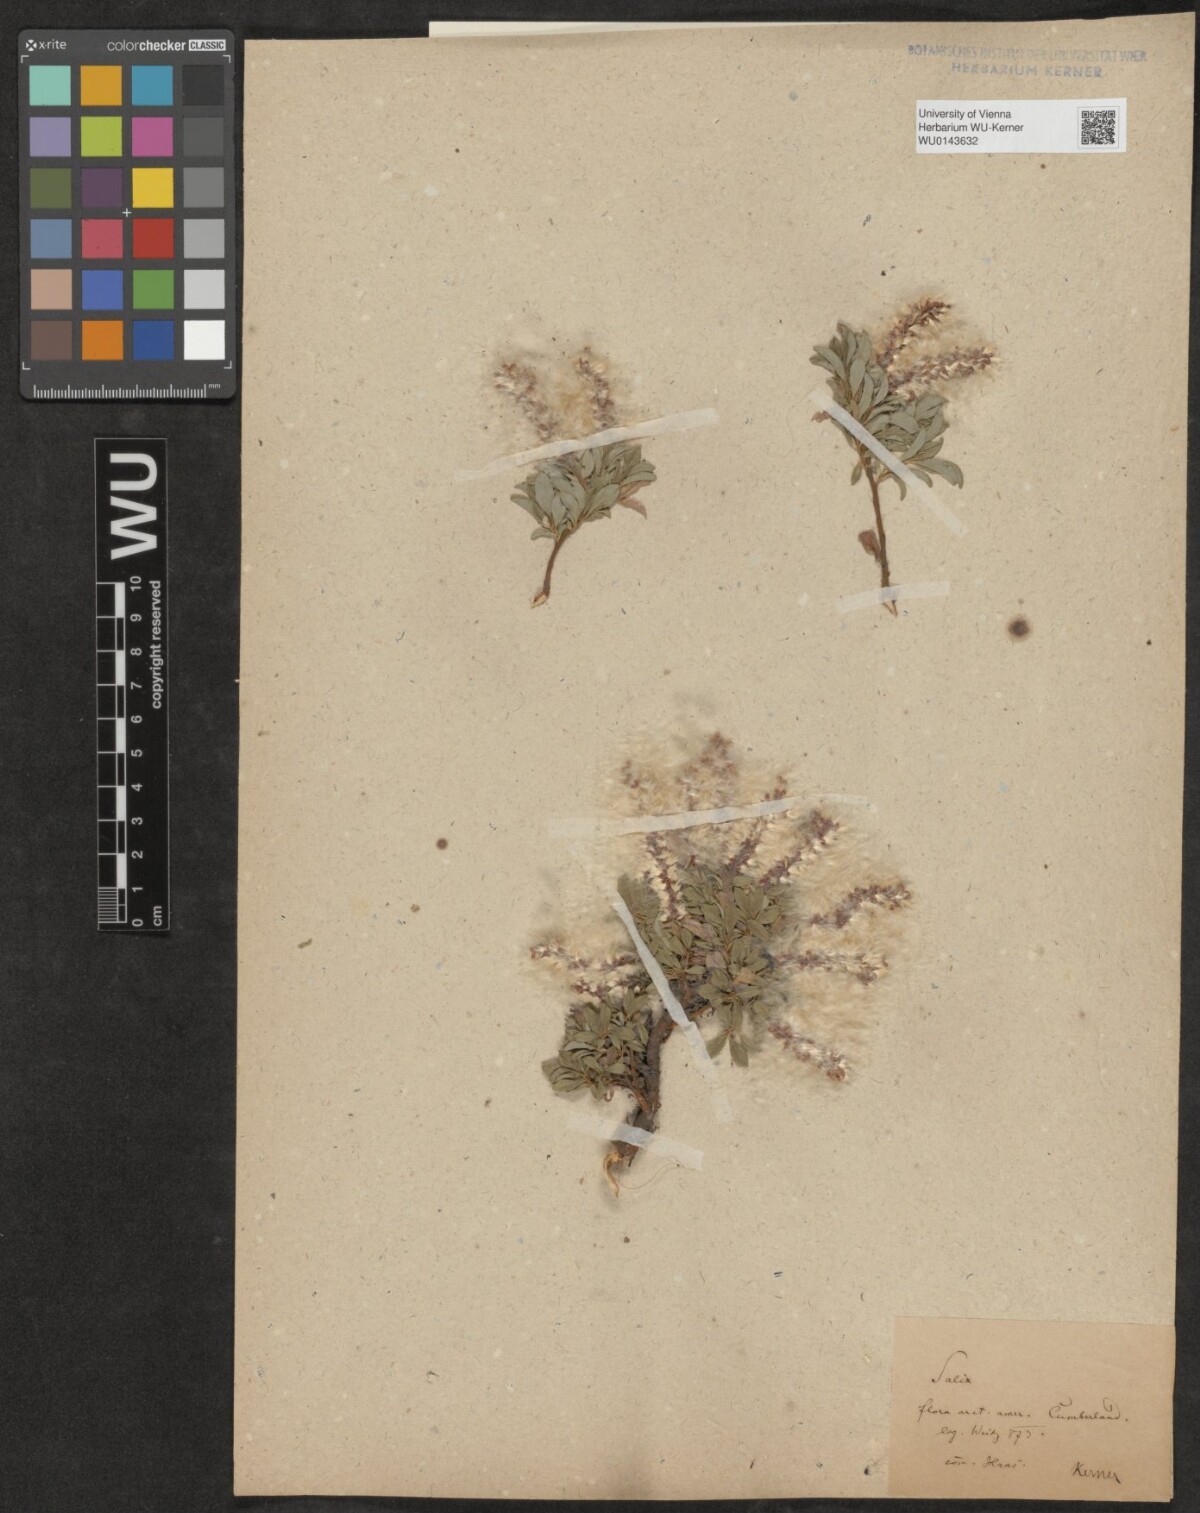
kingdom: Plantae
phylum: Tracheophyta
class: Magnoliopsida
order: Malpighiales
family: Salicaceae
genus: Salix
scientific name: Salix
